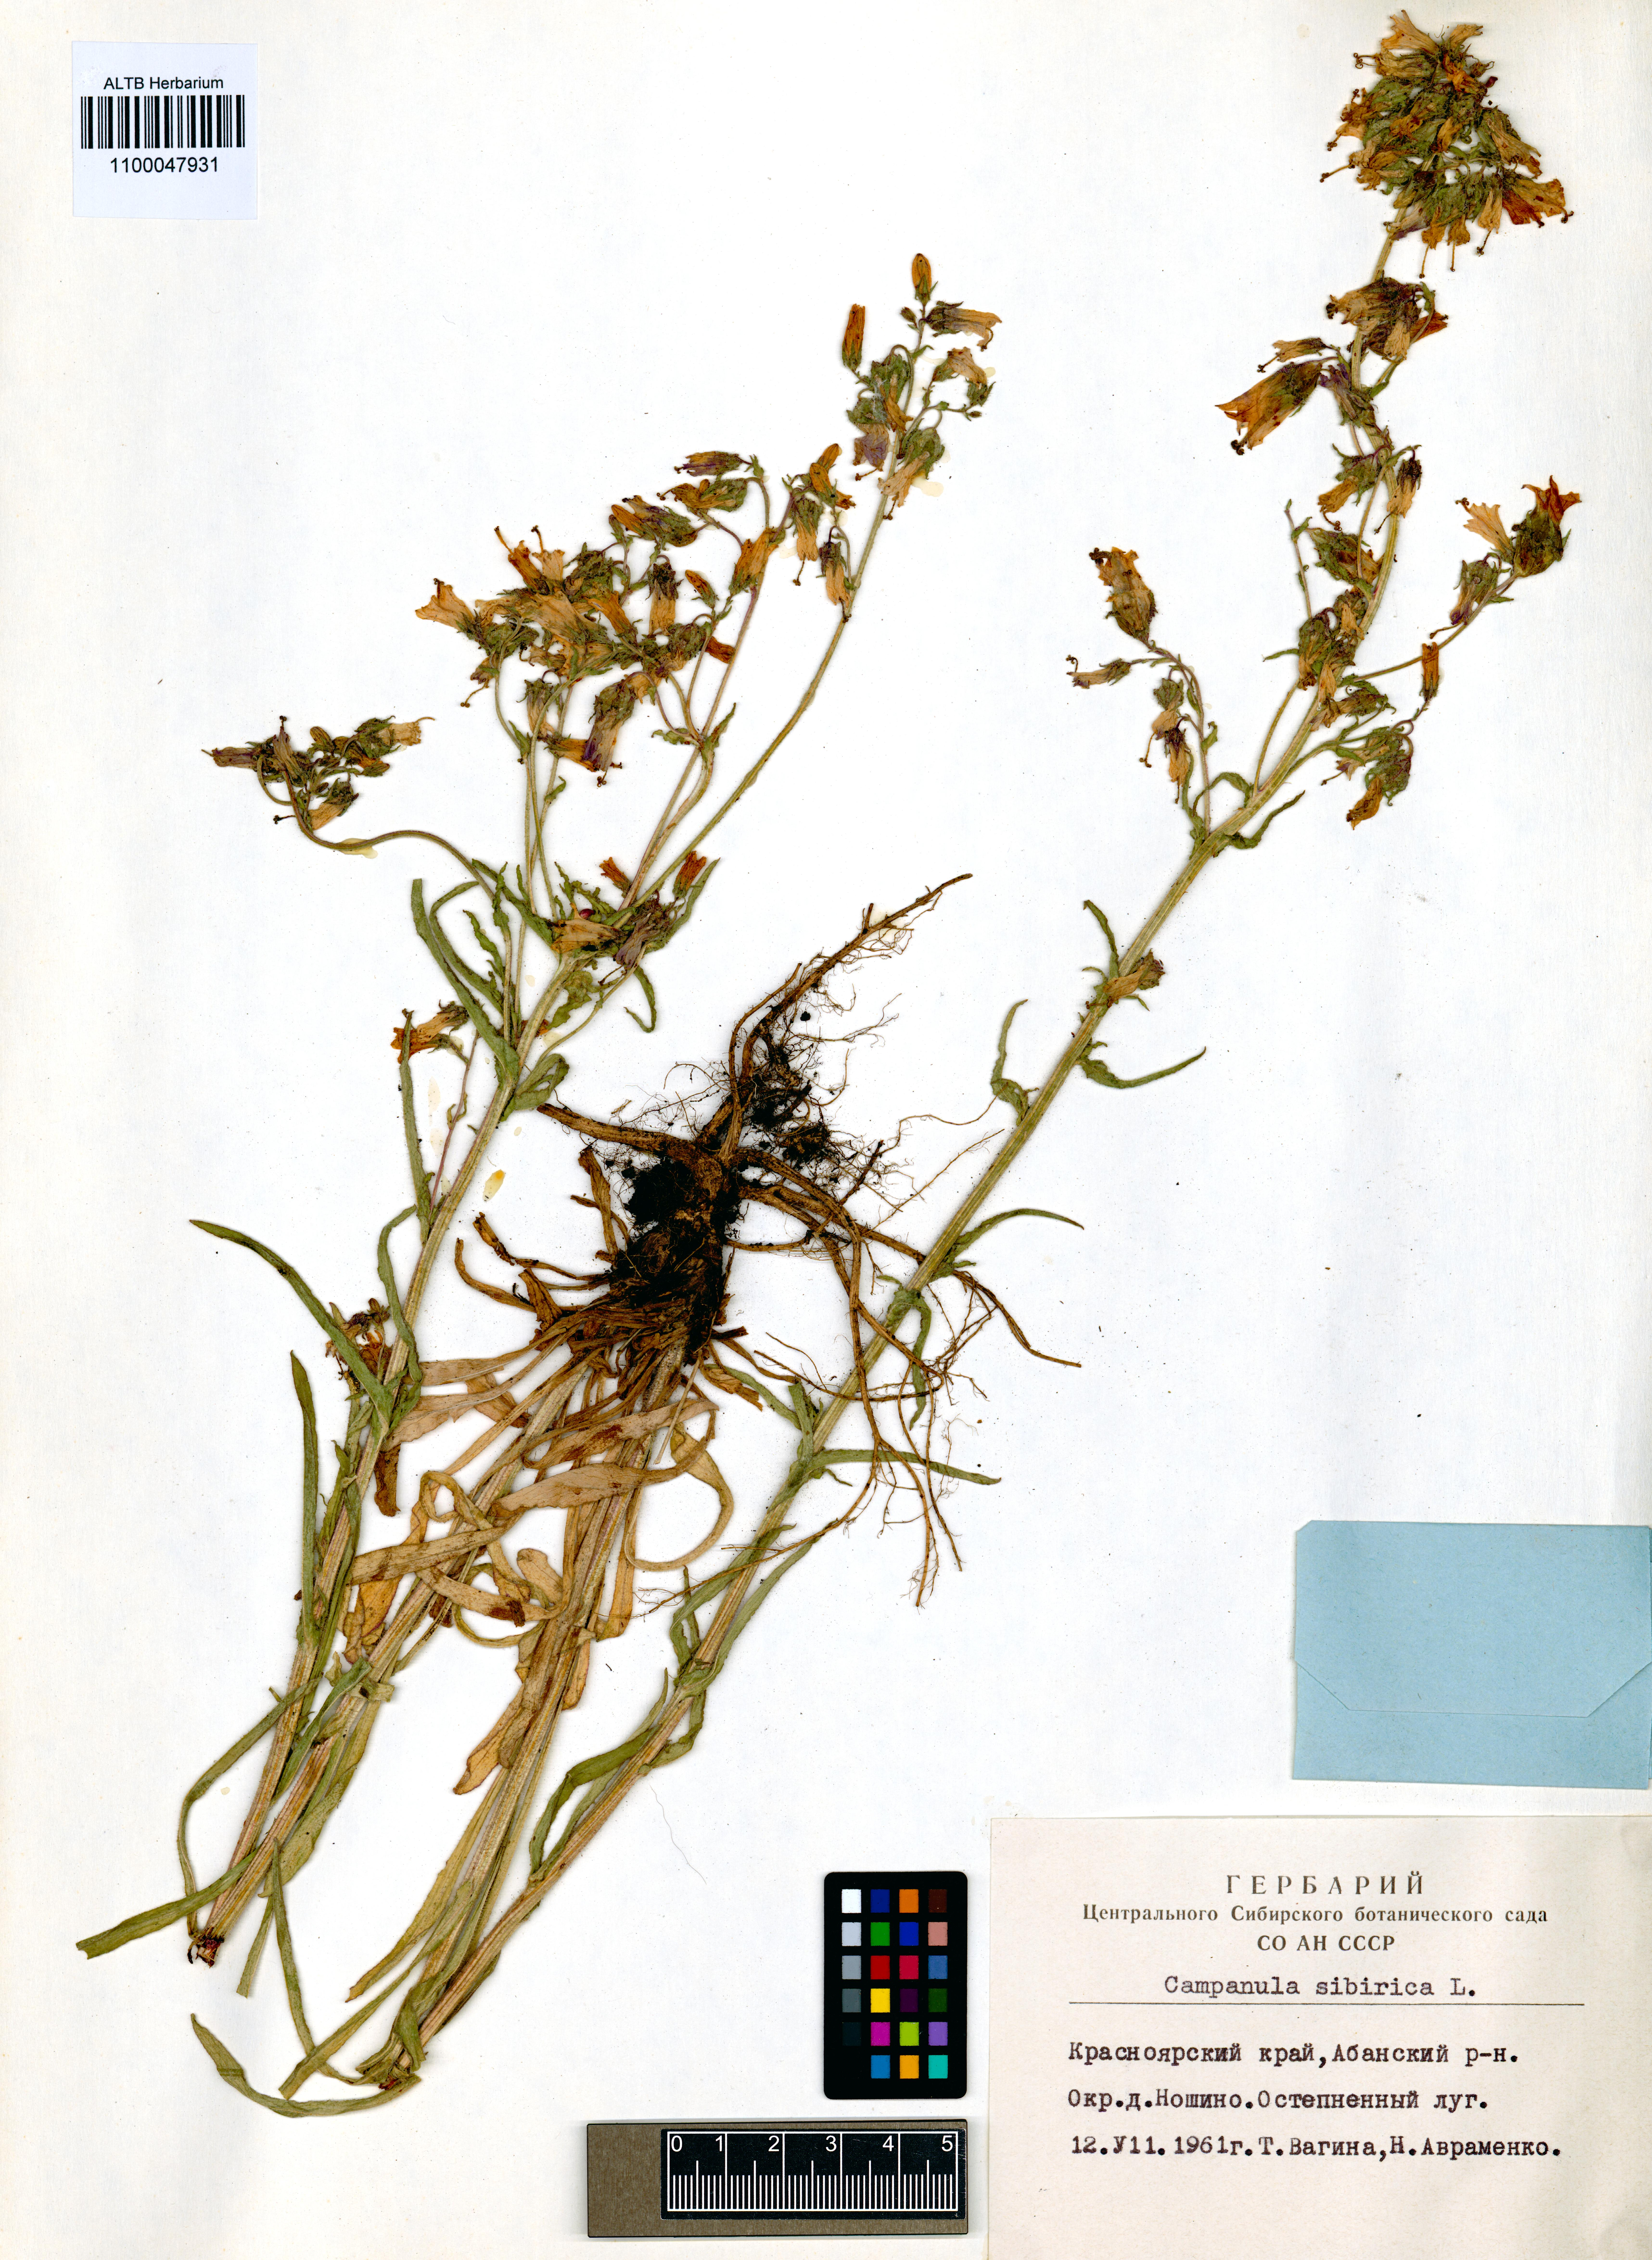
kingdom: Plantae
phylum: Tracheophyta
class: Magnoliopsida
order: Asterales
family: Campanulaceae
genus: Campanula
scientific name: Campanula sibirica
